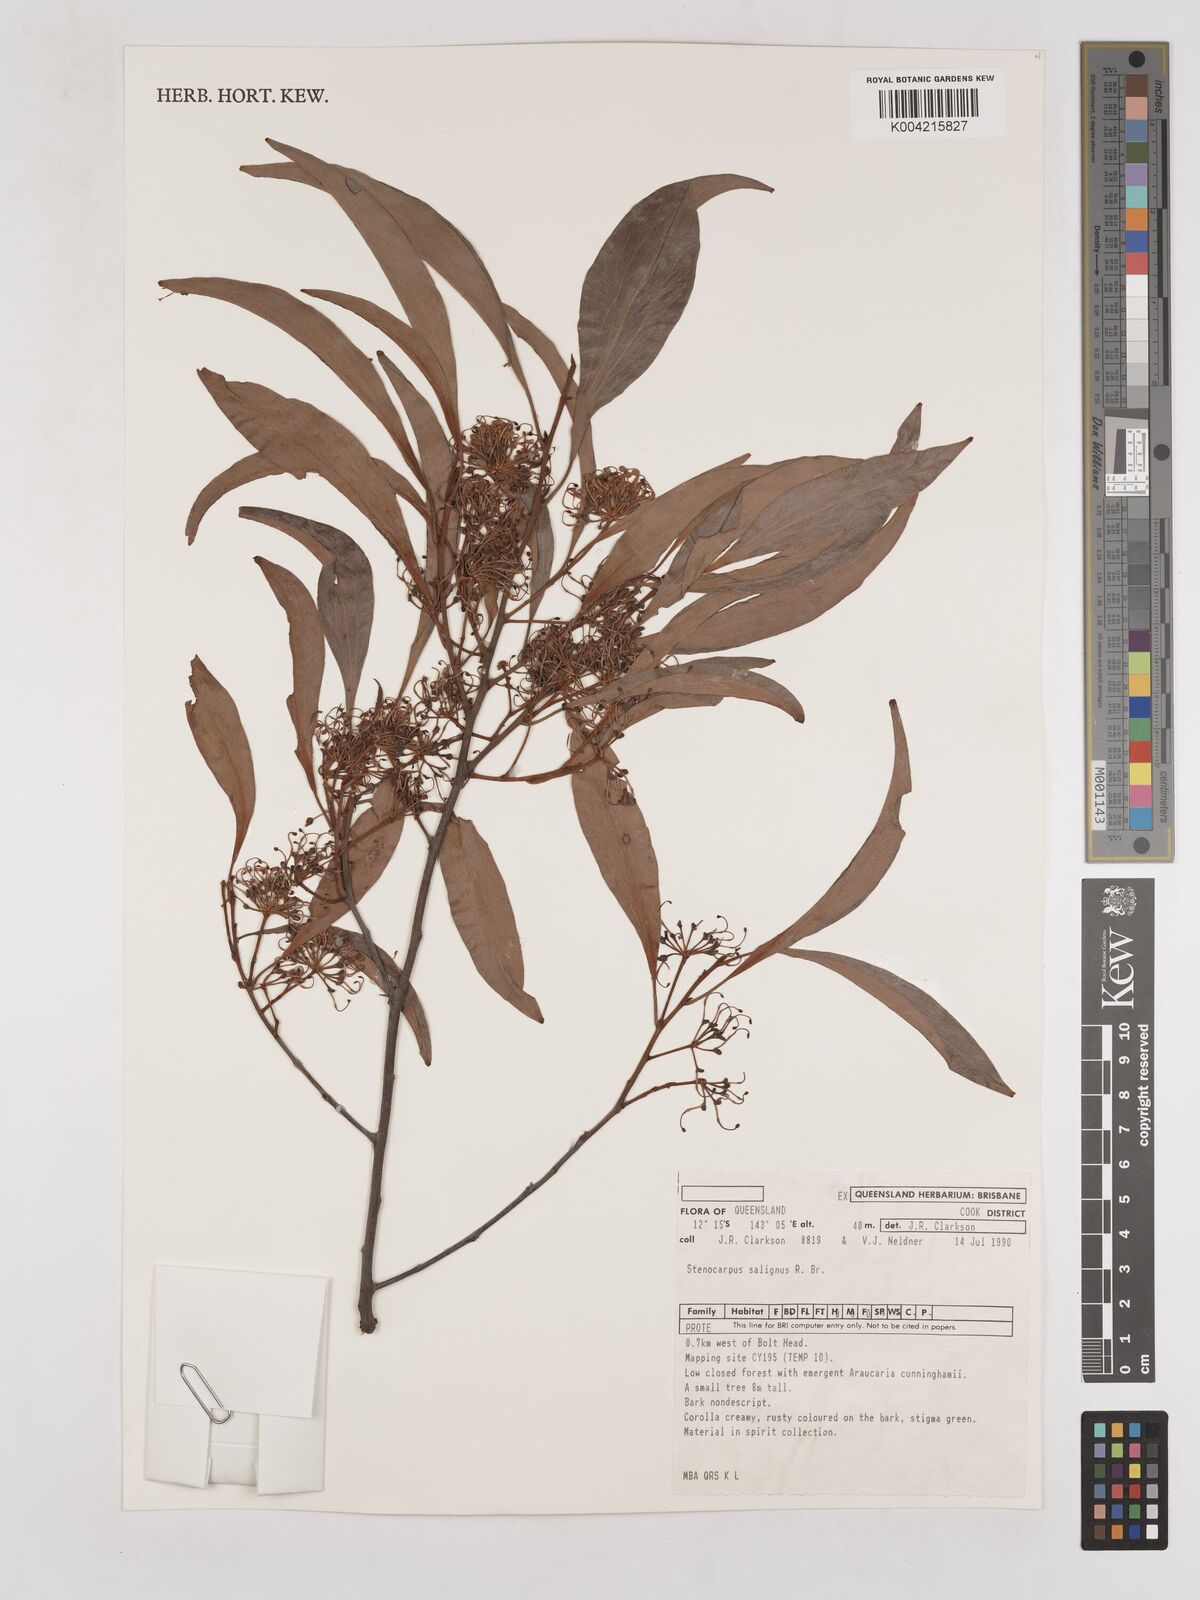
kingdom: Plantae
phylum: Tracheophyta
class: Magnoliopsida
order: Proteales
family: Proteaceae
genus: Stenocarpus
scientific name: Stenocarpus salignus
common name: Red silky-oak
